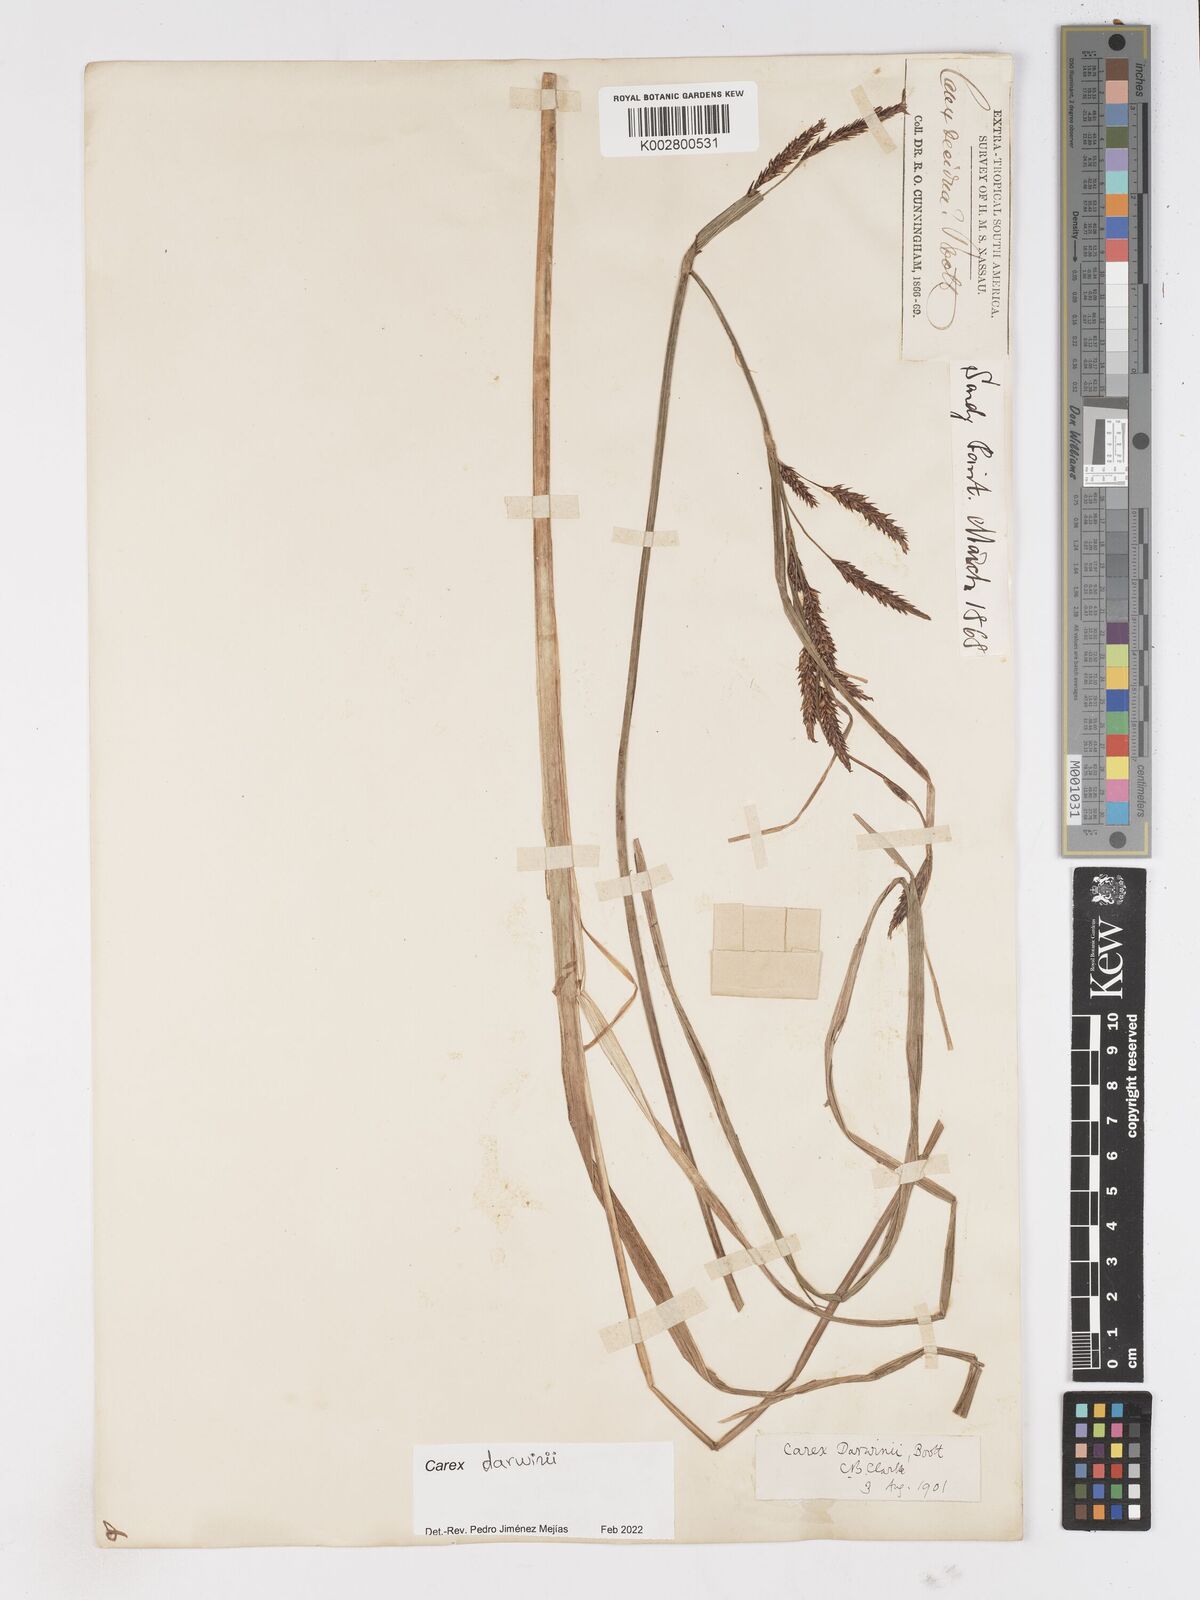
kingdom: Plantae
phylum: Tracheophyta
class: Liliopsida
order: Poales
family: Cyperaceae
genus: Carex
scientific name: Carex darwinii
